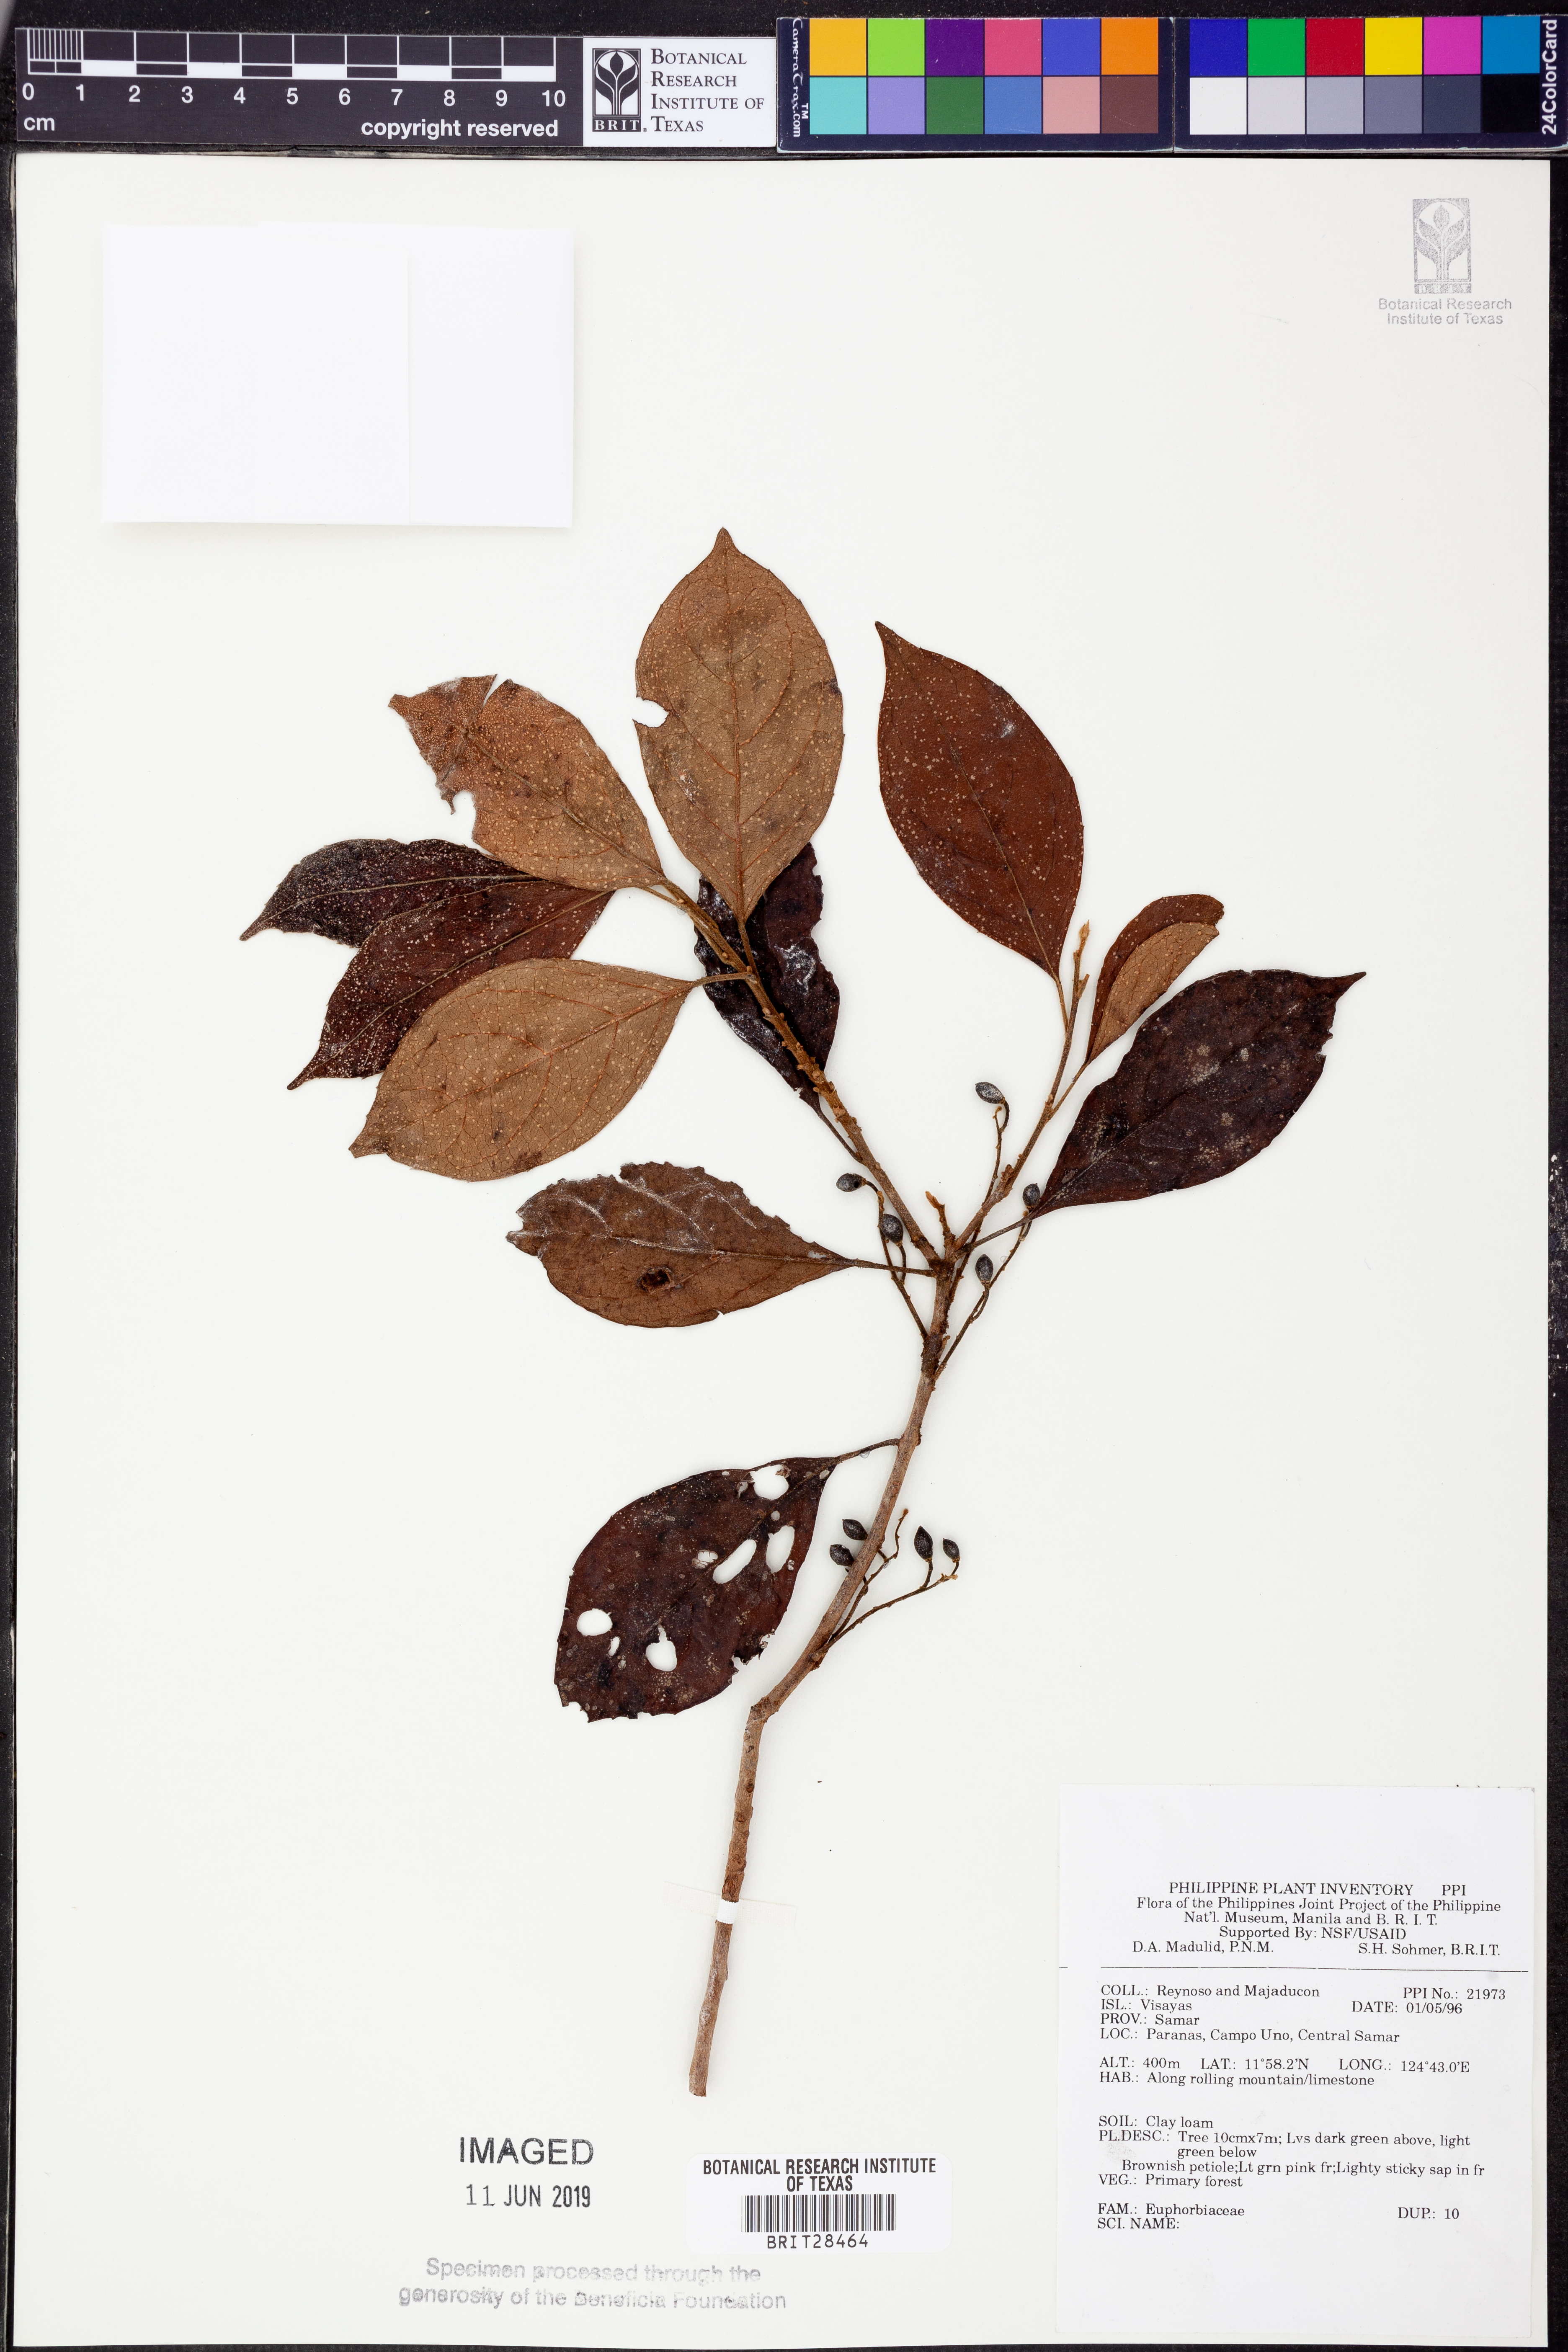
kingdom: Plantae
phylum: Tracheophyta
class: Magnoliopsida
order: Malpighiales
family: Euphorbiaceae
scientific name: Euphorbiaceae
